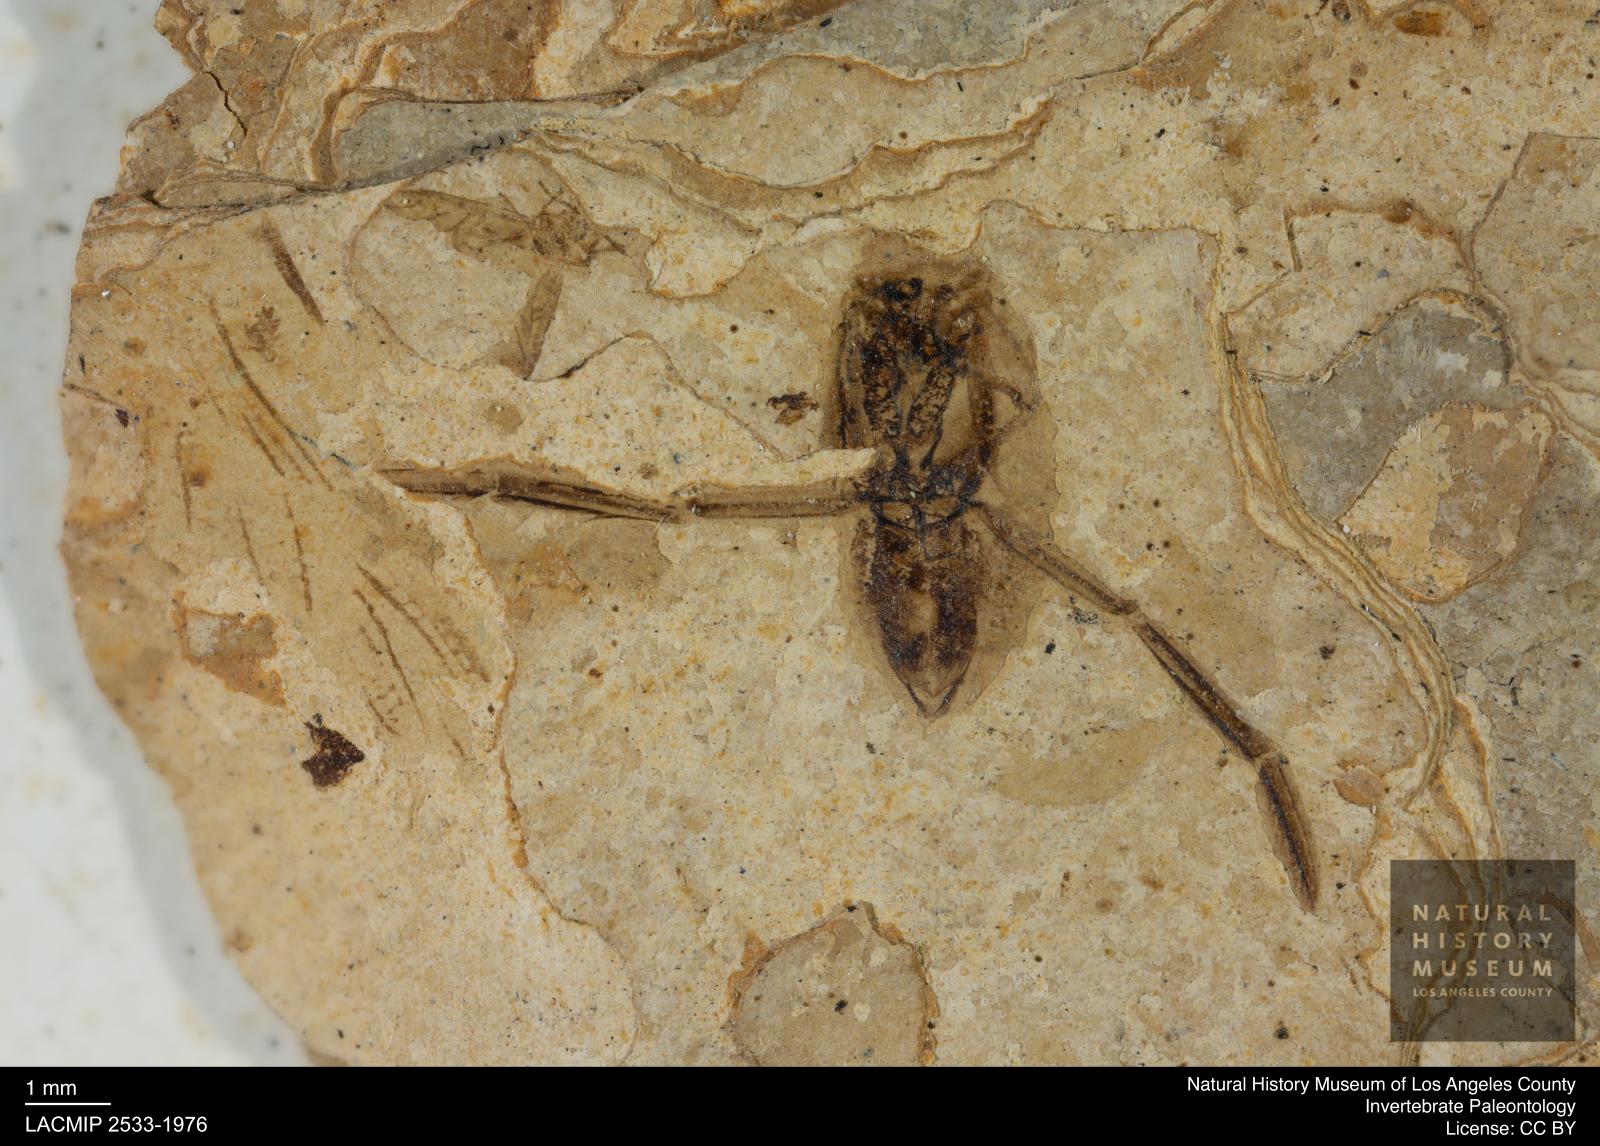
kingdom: Animalia
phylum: Arthropoda
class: Insecta
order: Hemiptera
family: Notonectidae
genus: Anisops
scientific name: Anisops Notonecta deichmuelleri
